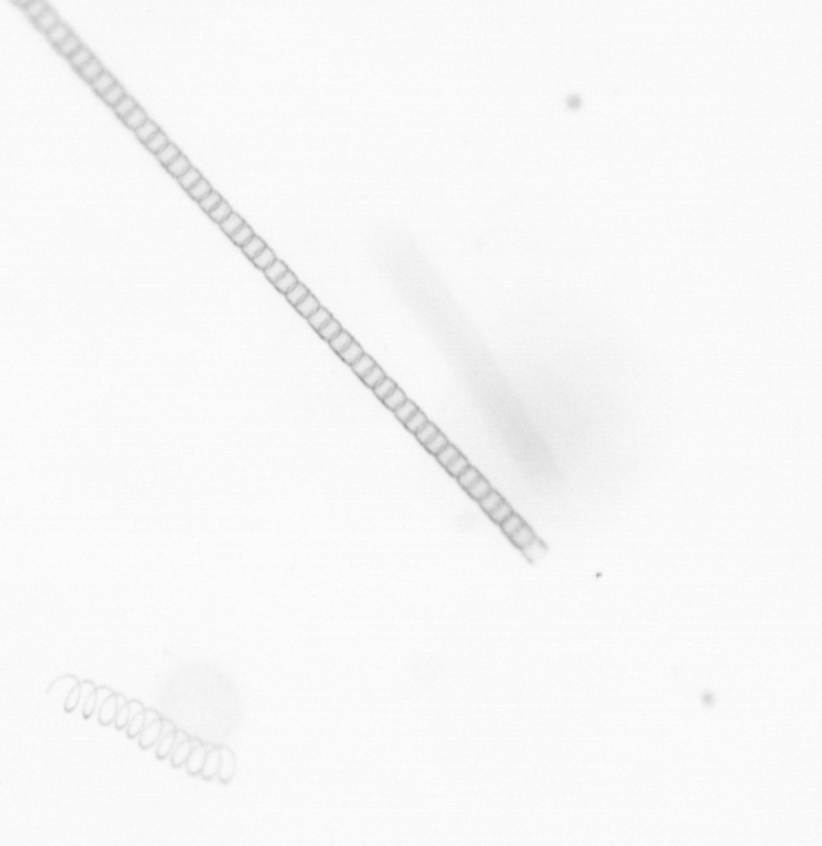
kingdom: Chromista
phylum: Ochrophyta
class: Bacillariophyceae
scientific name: Bacillariophyceae
